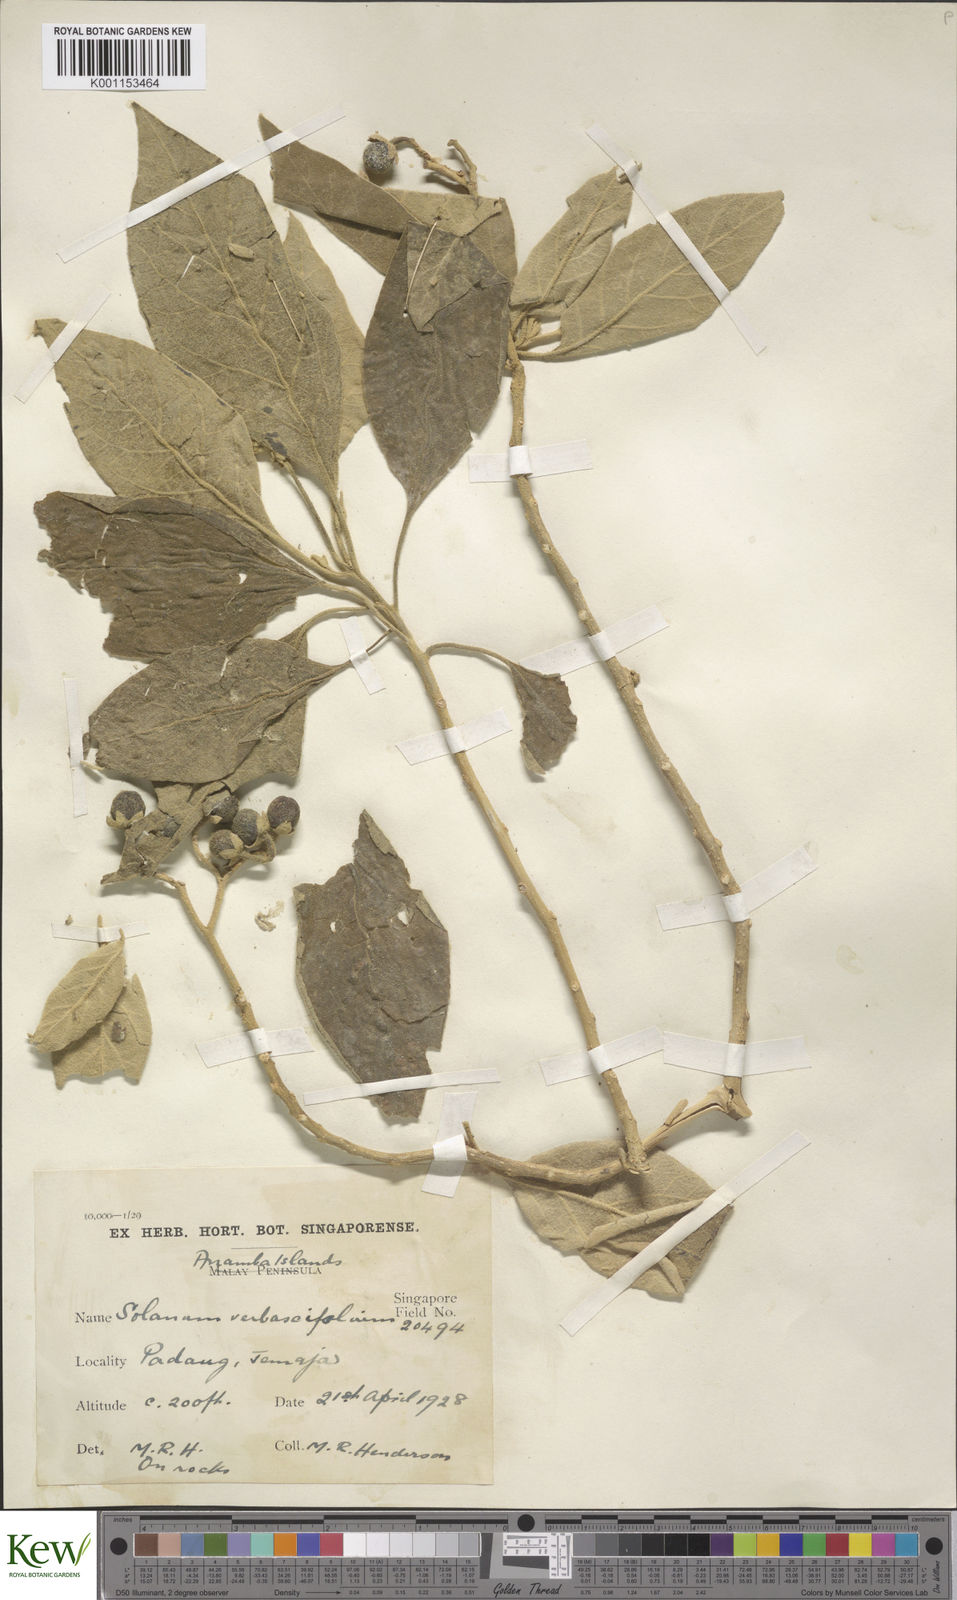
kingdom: Plantae
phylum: Tracheophyta
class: Magnoliopsida
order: Solanales
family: Solanaceae
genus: Solanum
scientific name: Solanum donianum
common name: Mullein nightshade
